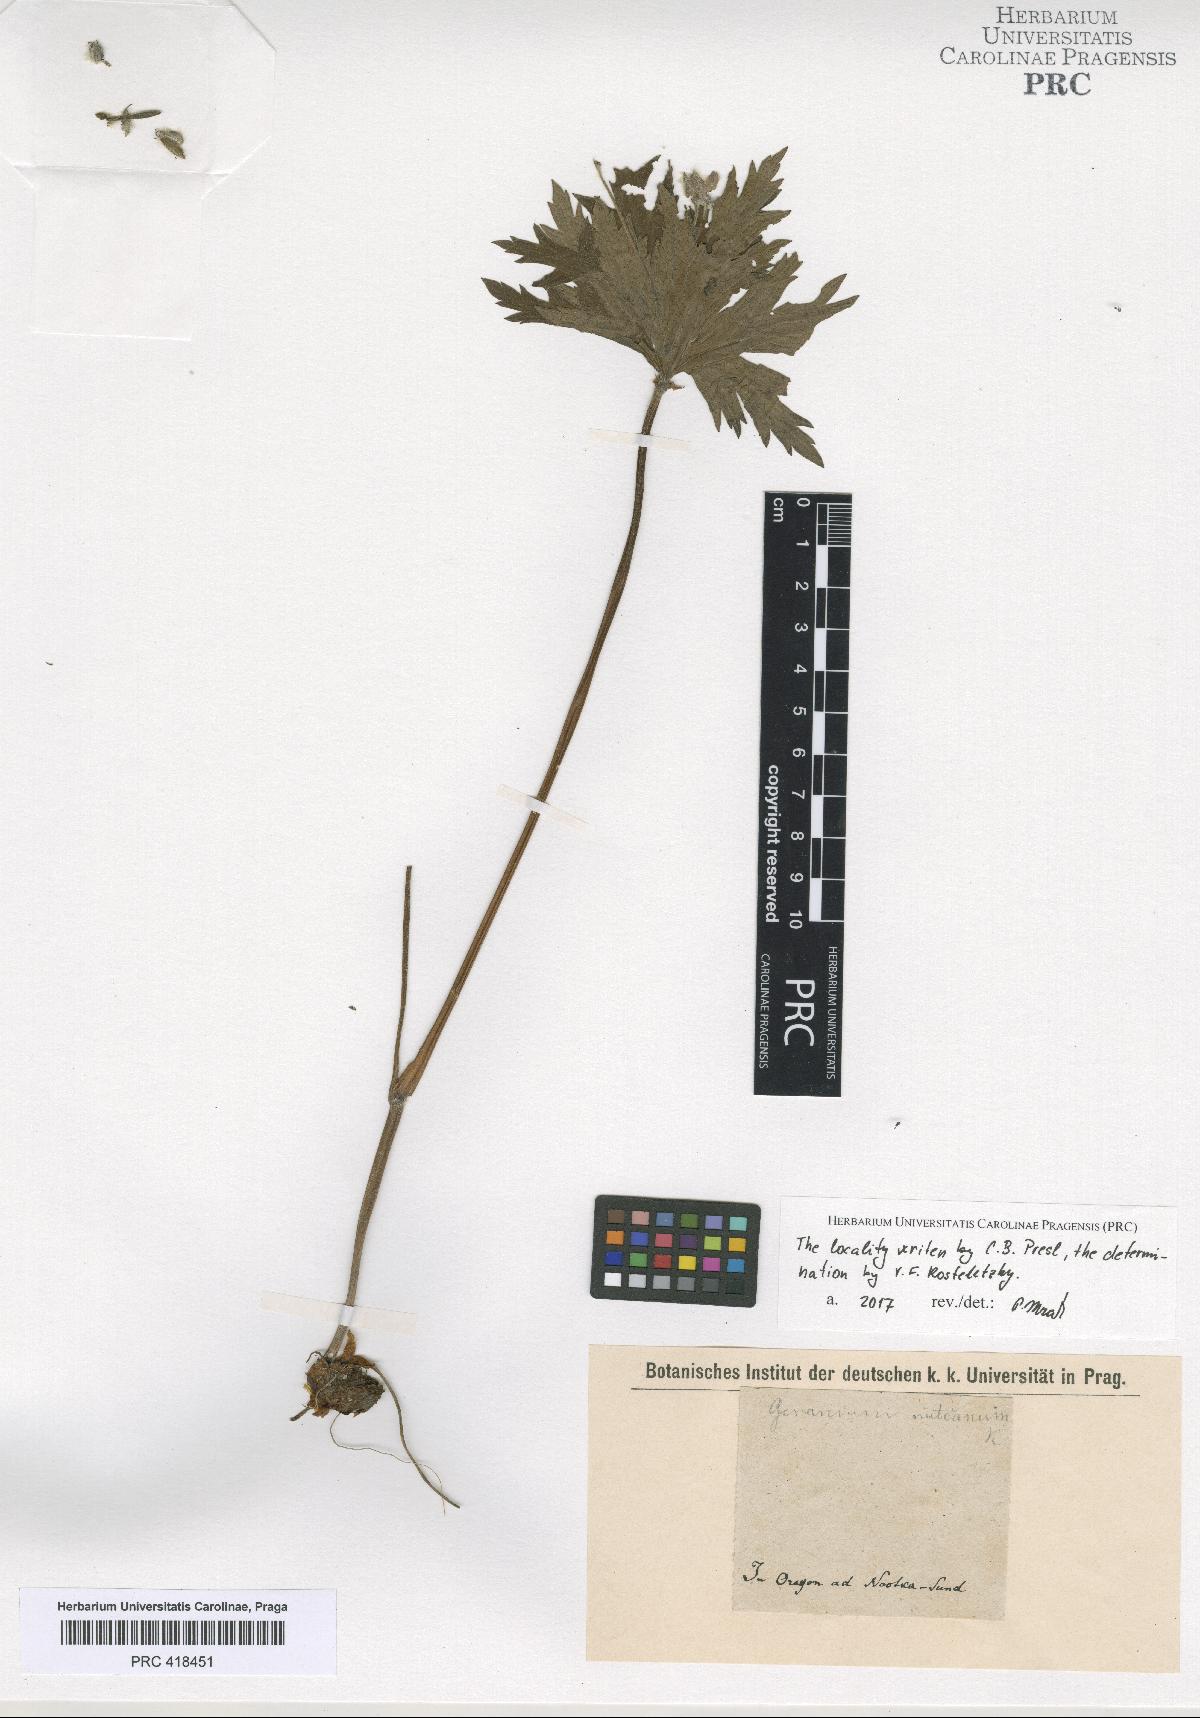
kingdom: Plantae
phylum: Tracheophyta
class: Magnoliopsida
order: Geraniales
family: Geraniaceae
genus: Geranium
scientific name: Geranium
